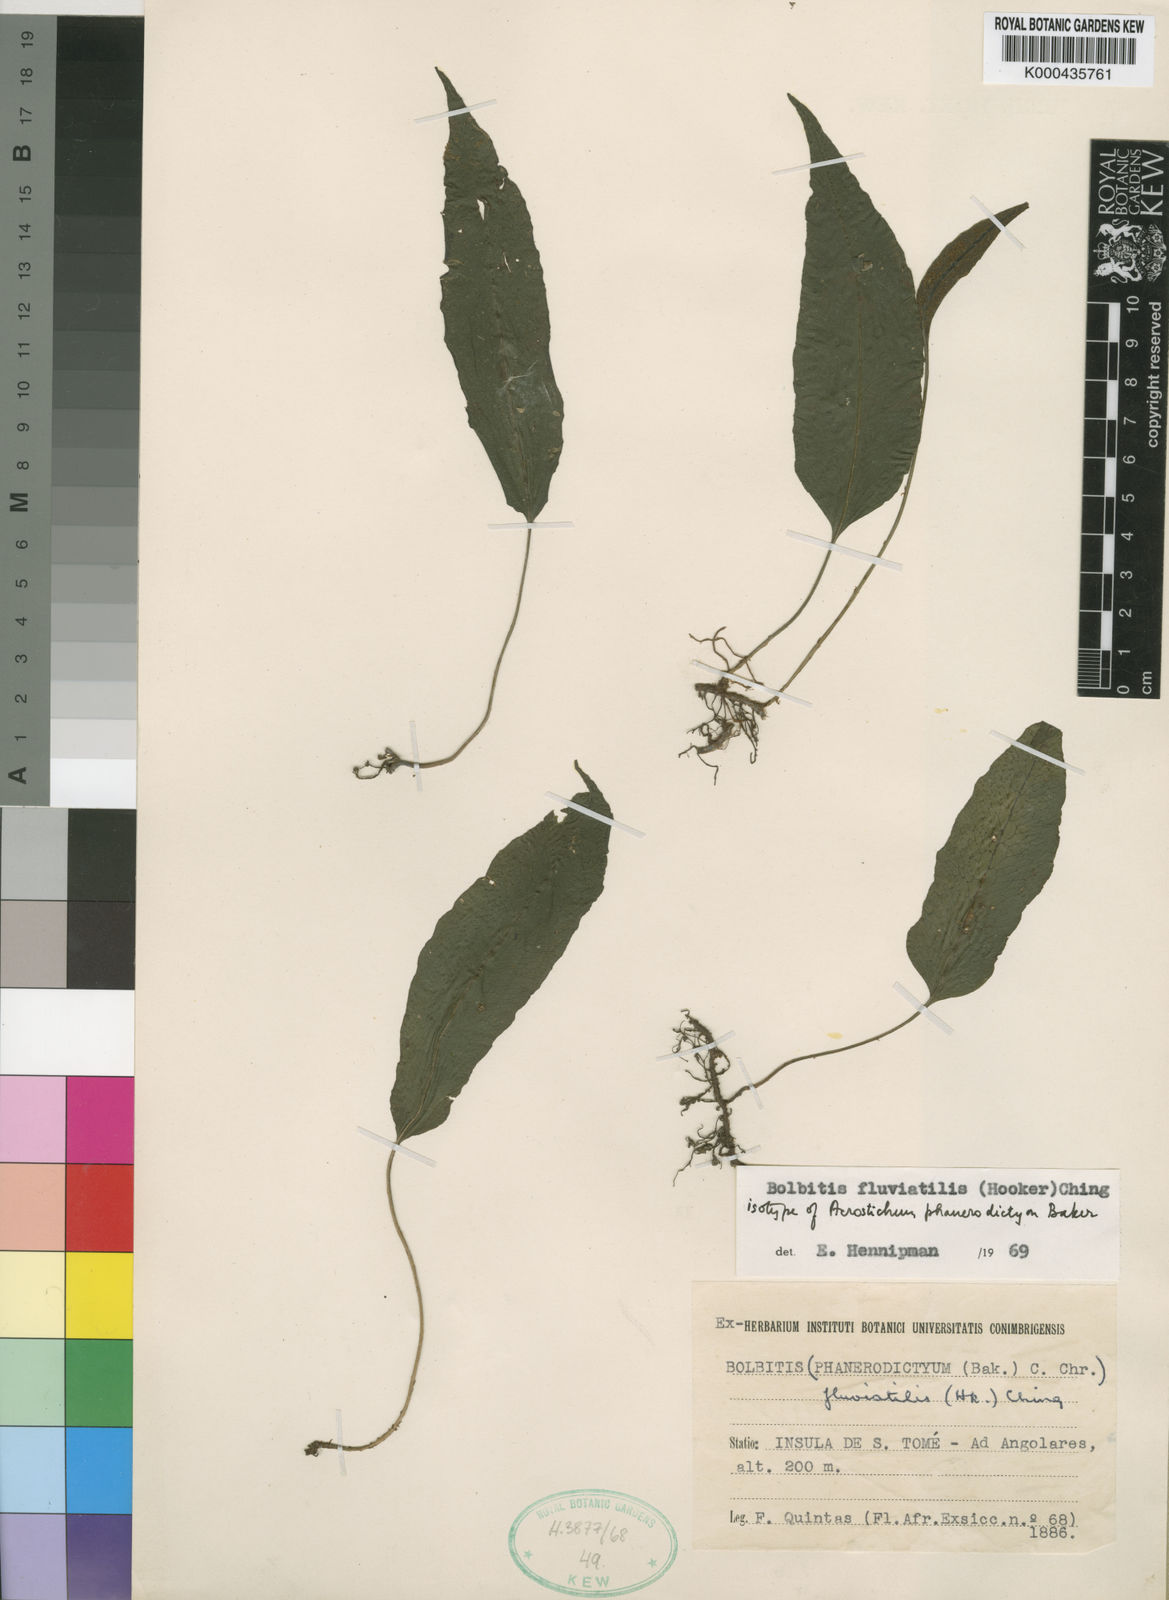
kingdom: Plantae
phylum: Tracheophyta
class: Polypodiopsida
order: Polypodiales
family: Dryopteridaceae
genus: Bolbitis
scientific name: Bolbitis fluviatilis
